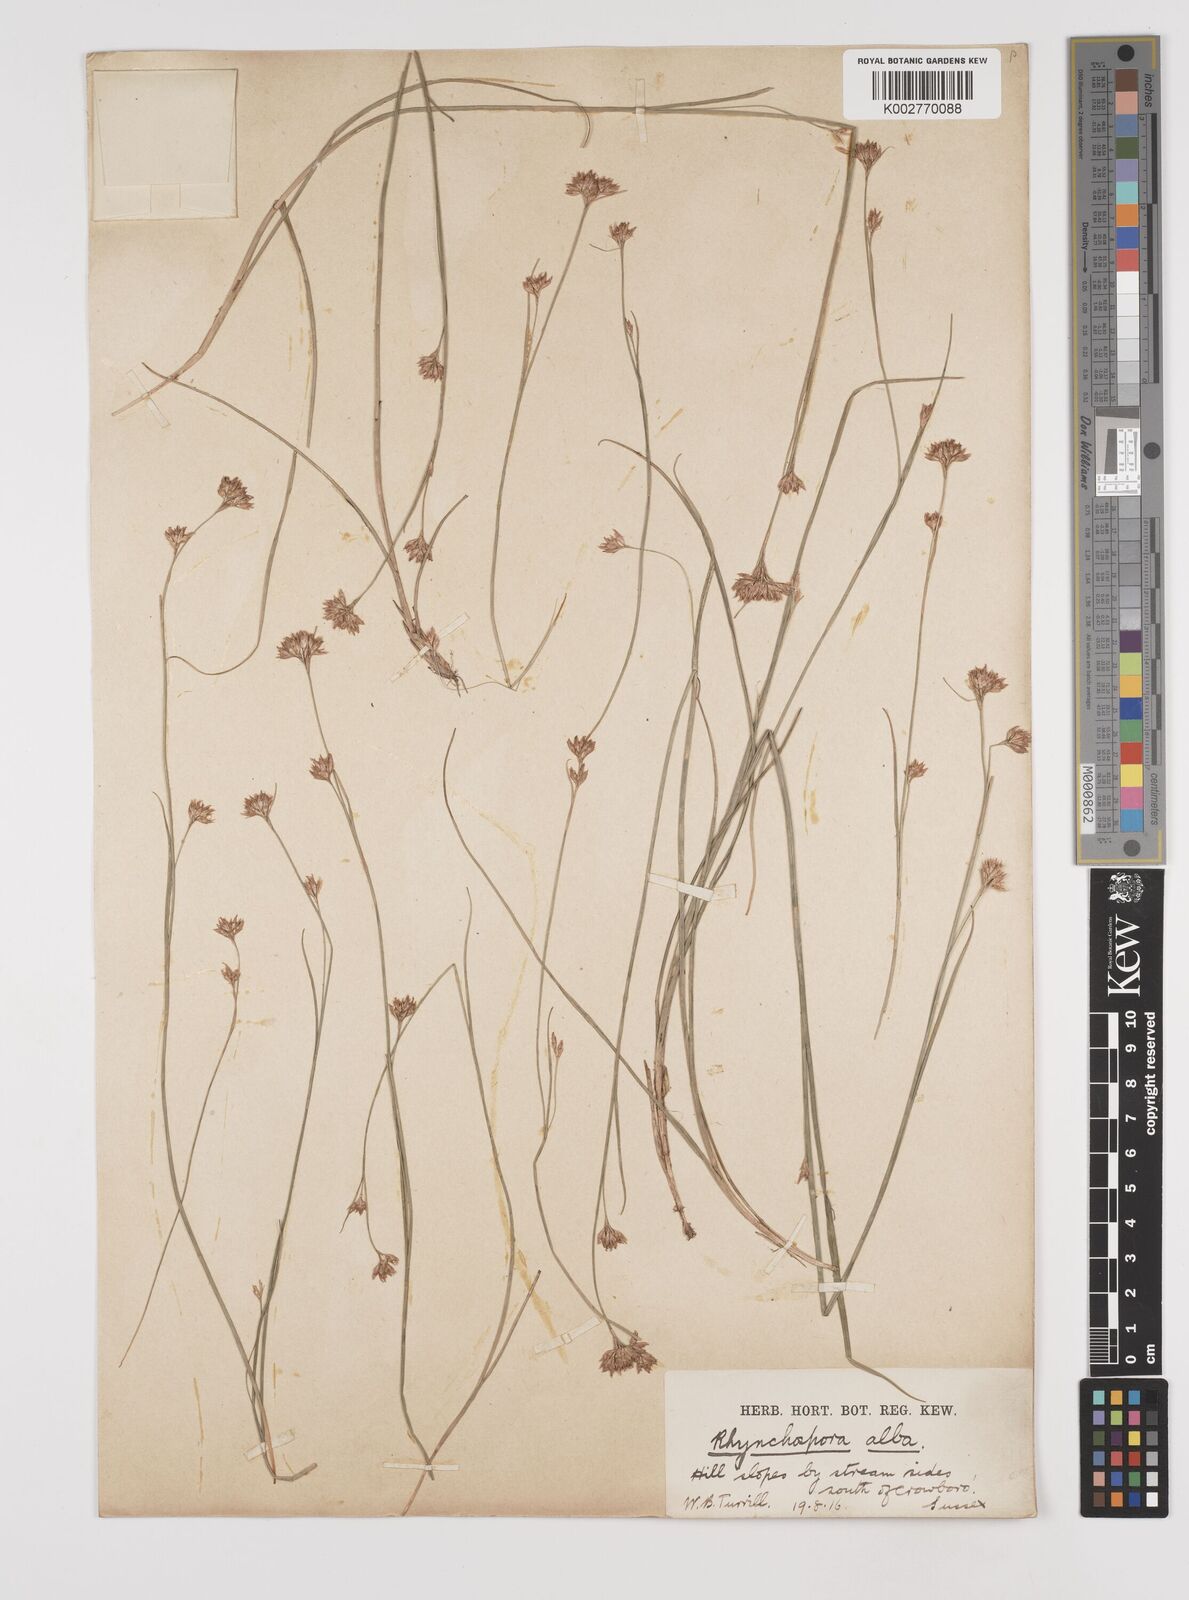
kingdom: Plantae
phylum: Tracheophyta
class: Liliopsida
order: Poales
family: Cyperaceae
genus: Rhynchospora
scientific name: Rhynchospora alba
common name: White beak-sedge
